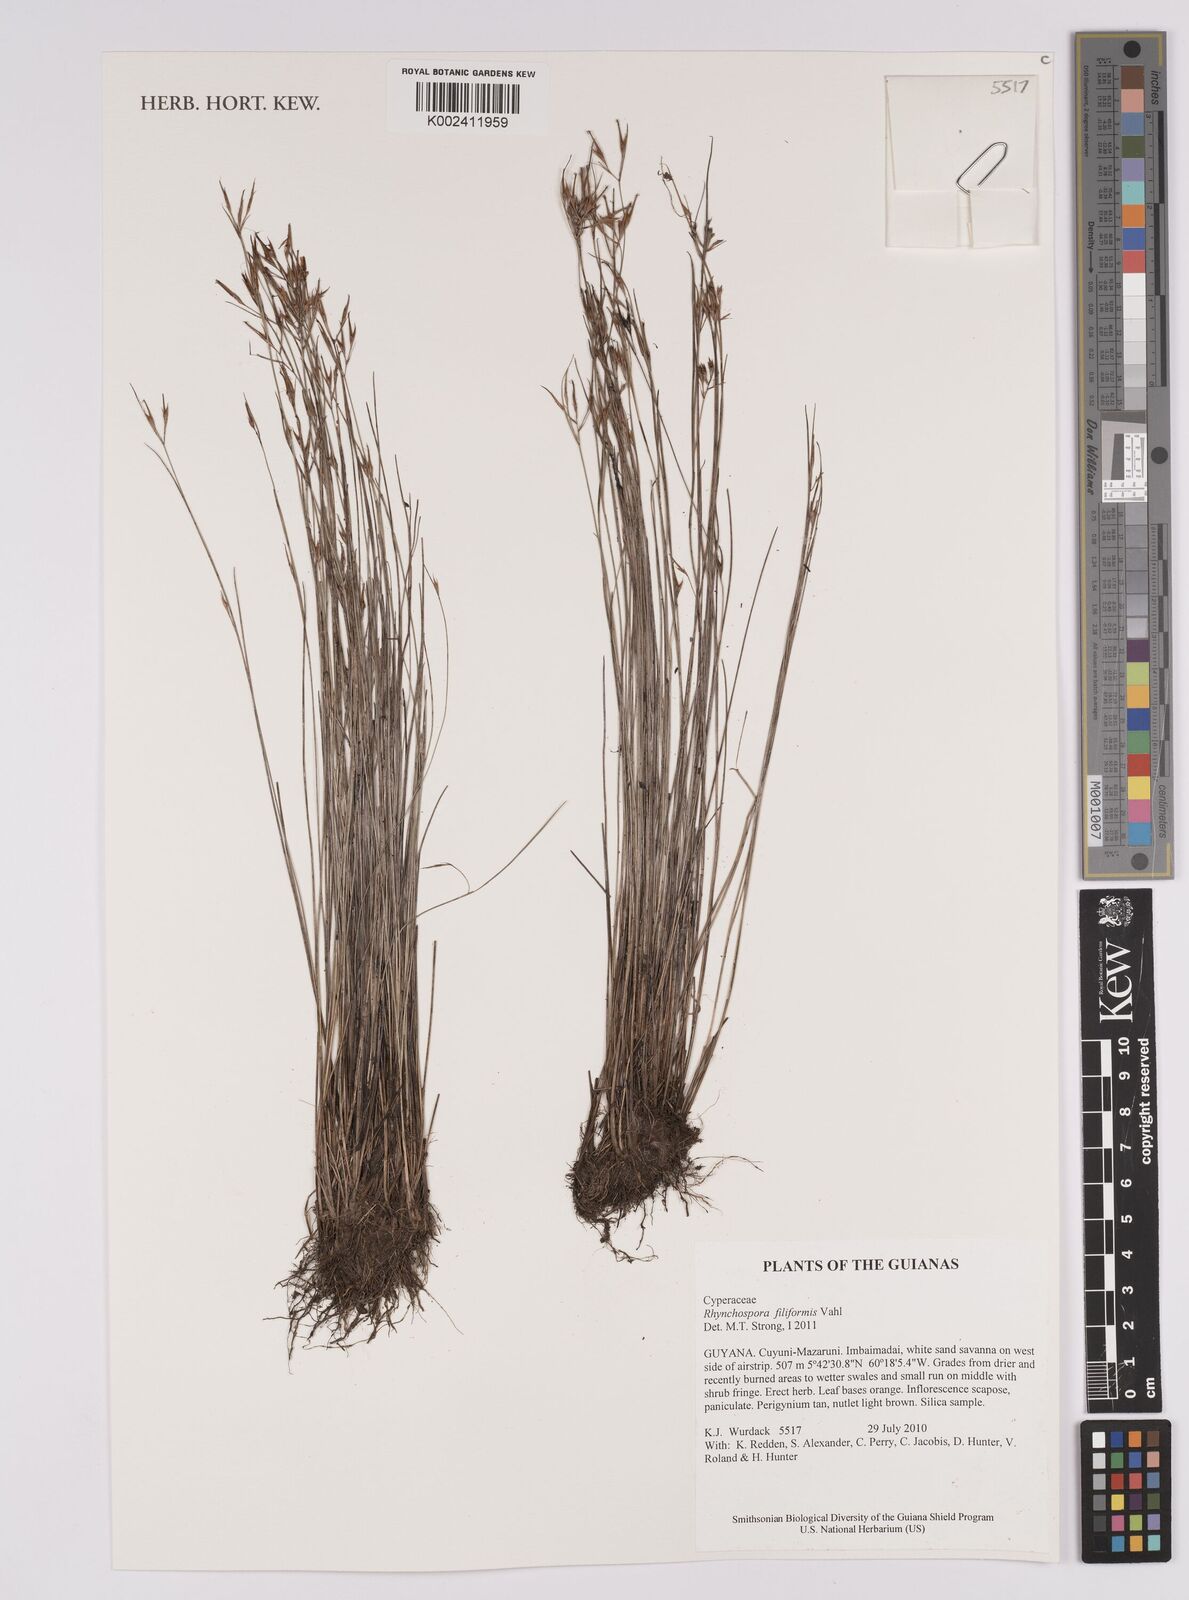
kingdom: Plantae
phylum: Tracheophyta
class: Liliopsida
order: Poales
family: Cyperaceae
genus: Rhynchospora
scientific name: Rhynchospora filiformis
